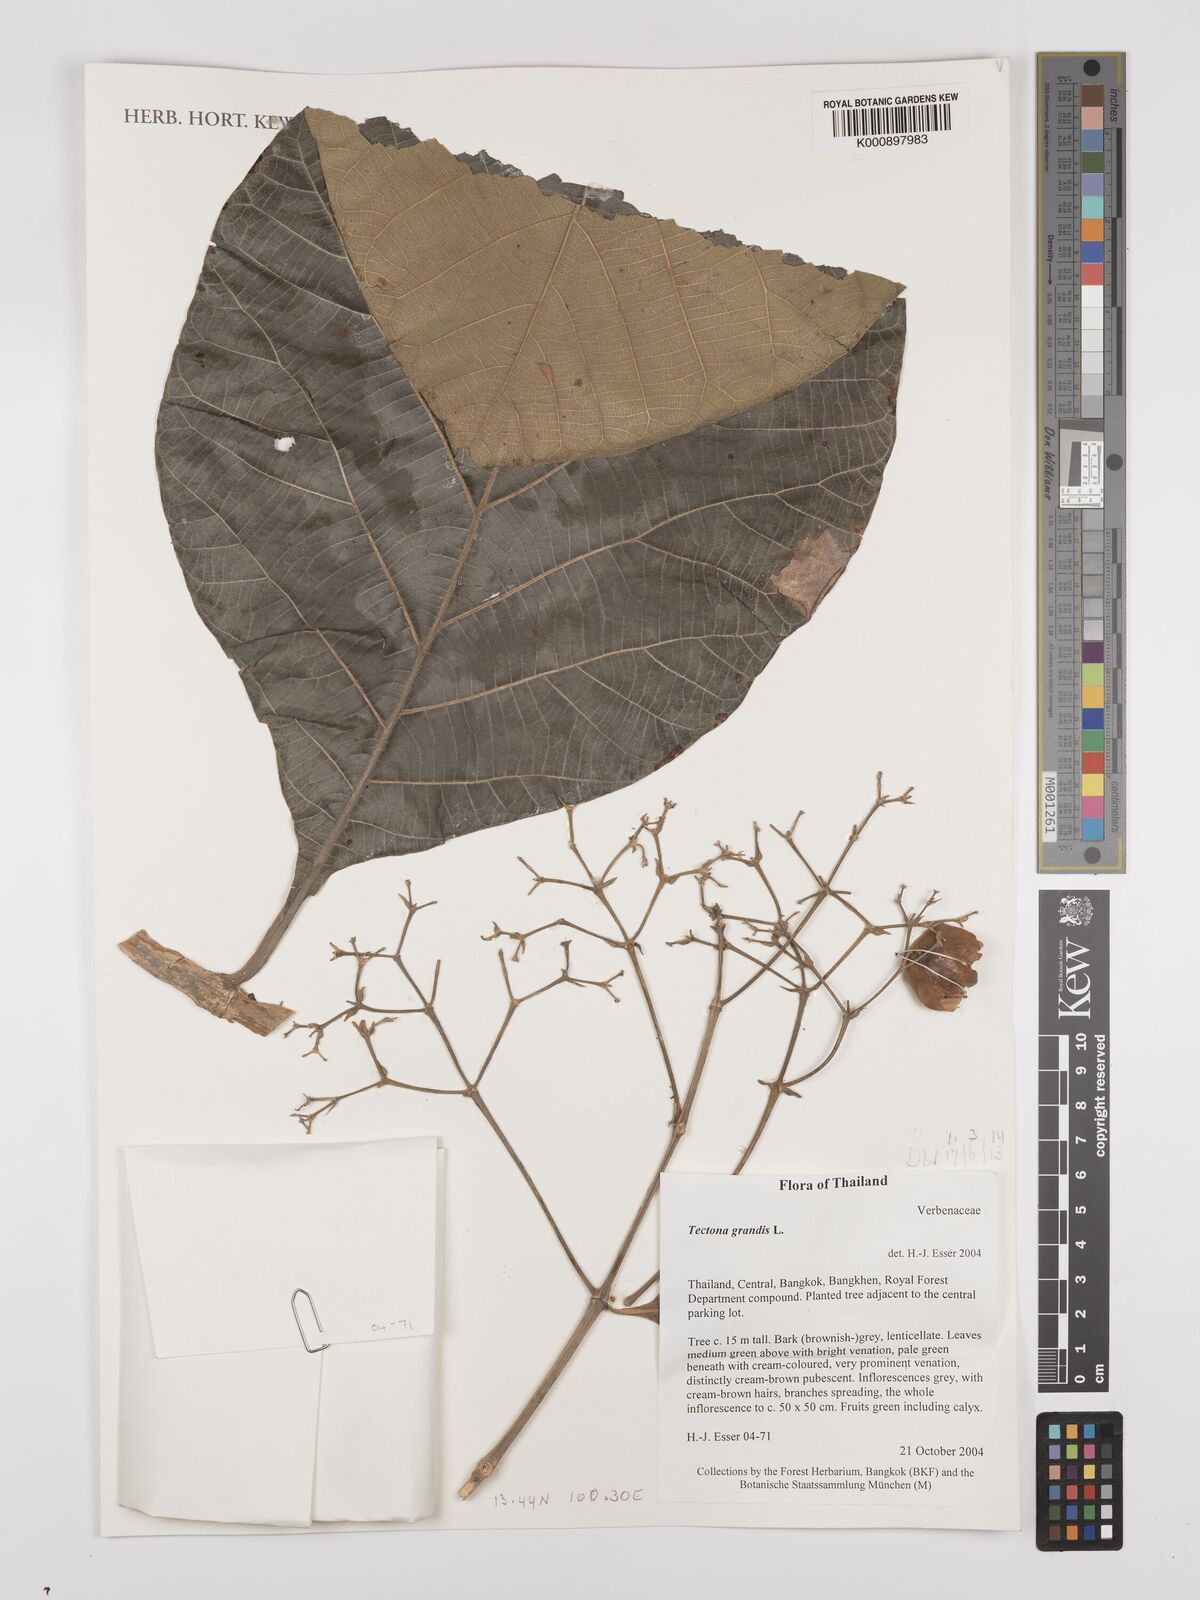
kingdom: Plantae
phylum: Tracheophyta
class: Magnoliopsida
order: Lamiales
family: Lamiaceae
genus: Tectona
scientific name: Tectona grandis
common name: Teak
